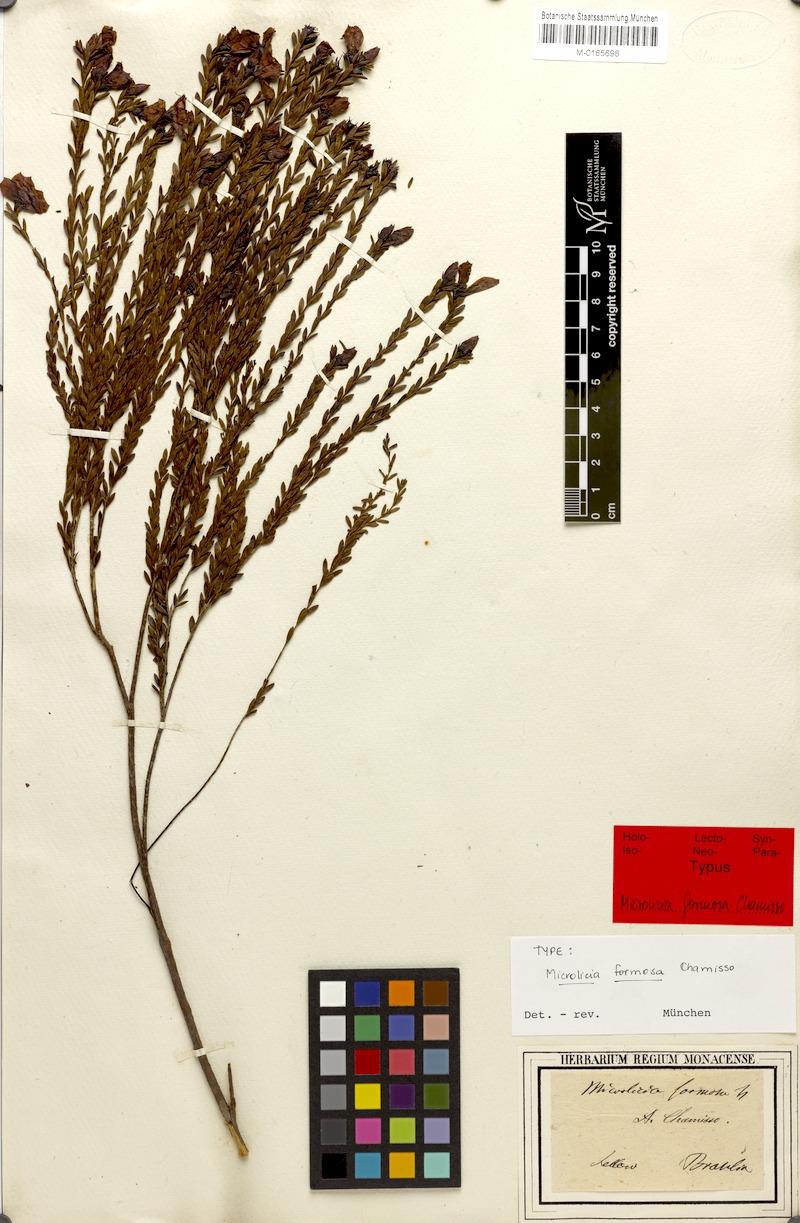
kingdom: Plantae
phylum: Tracheophyta
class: Magnoliopsida
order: Myrtales
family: Melastomataceae
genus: Microlicia
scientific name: Microlicia formosa
